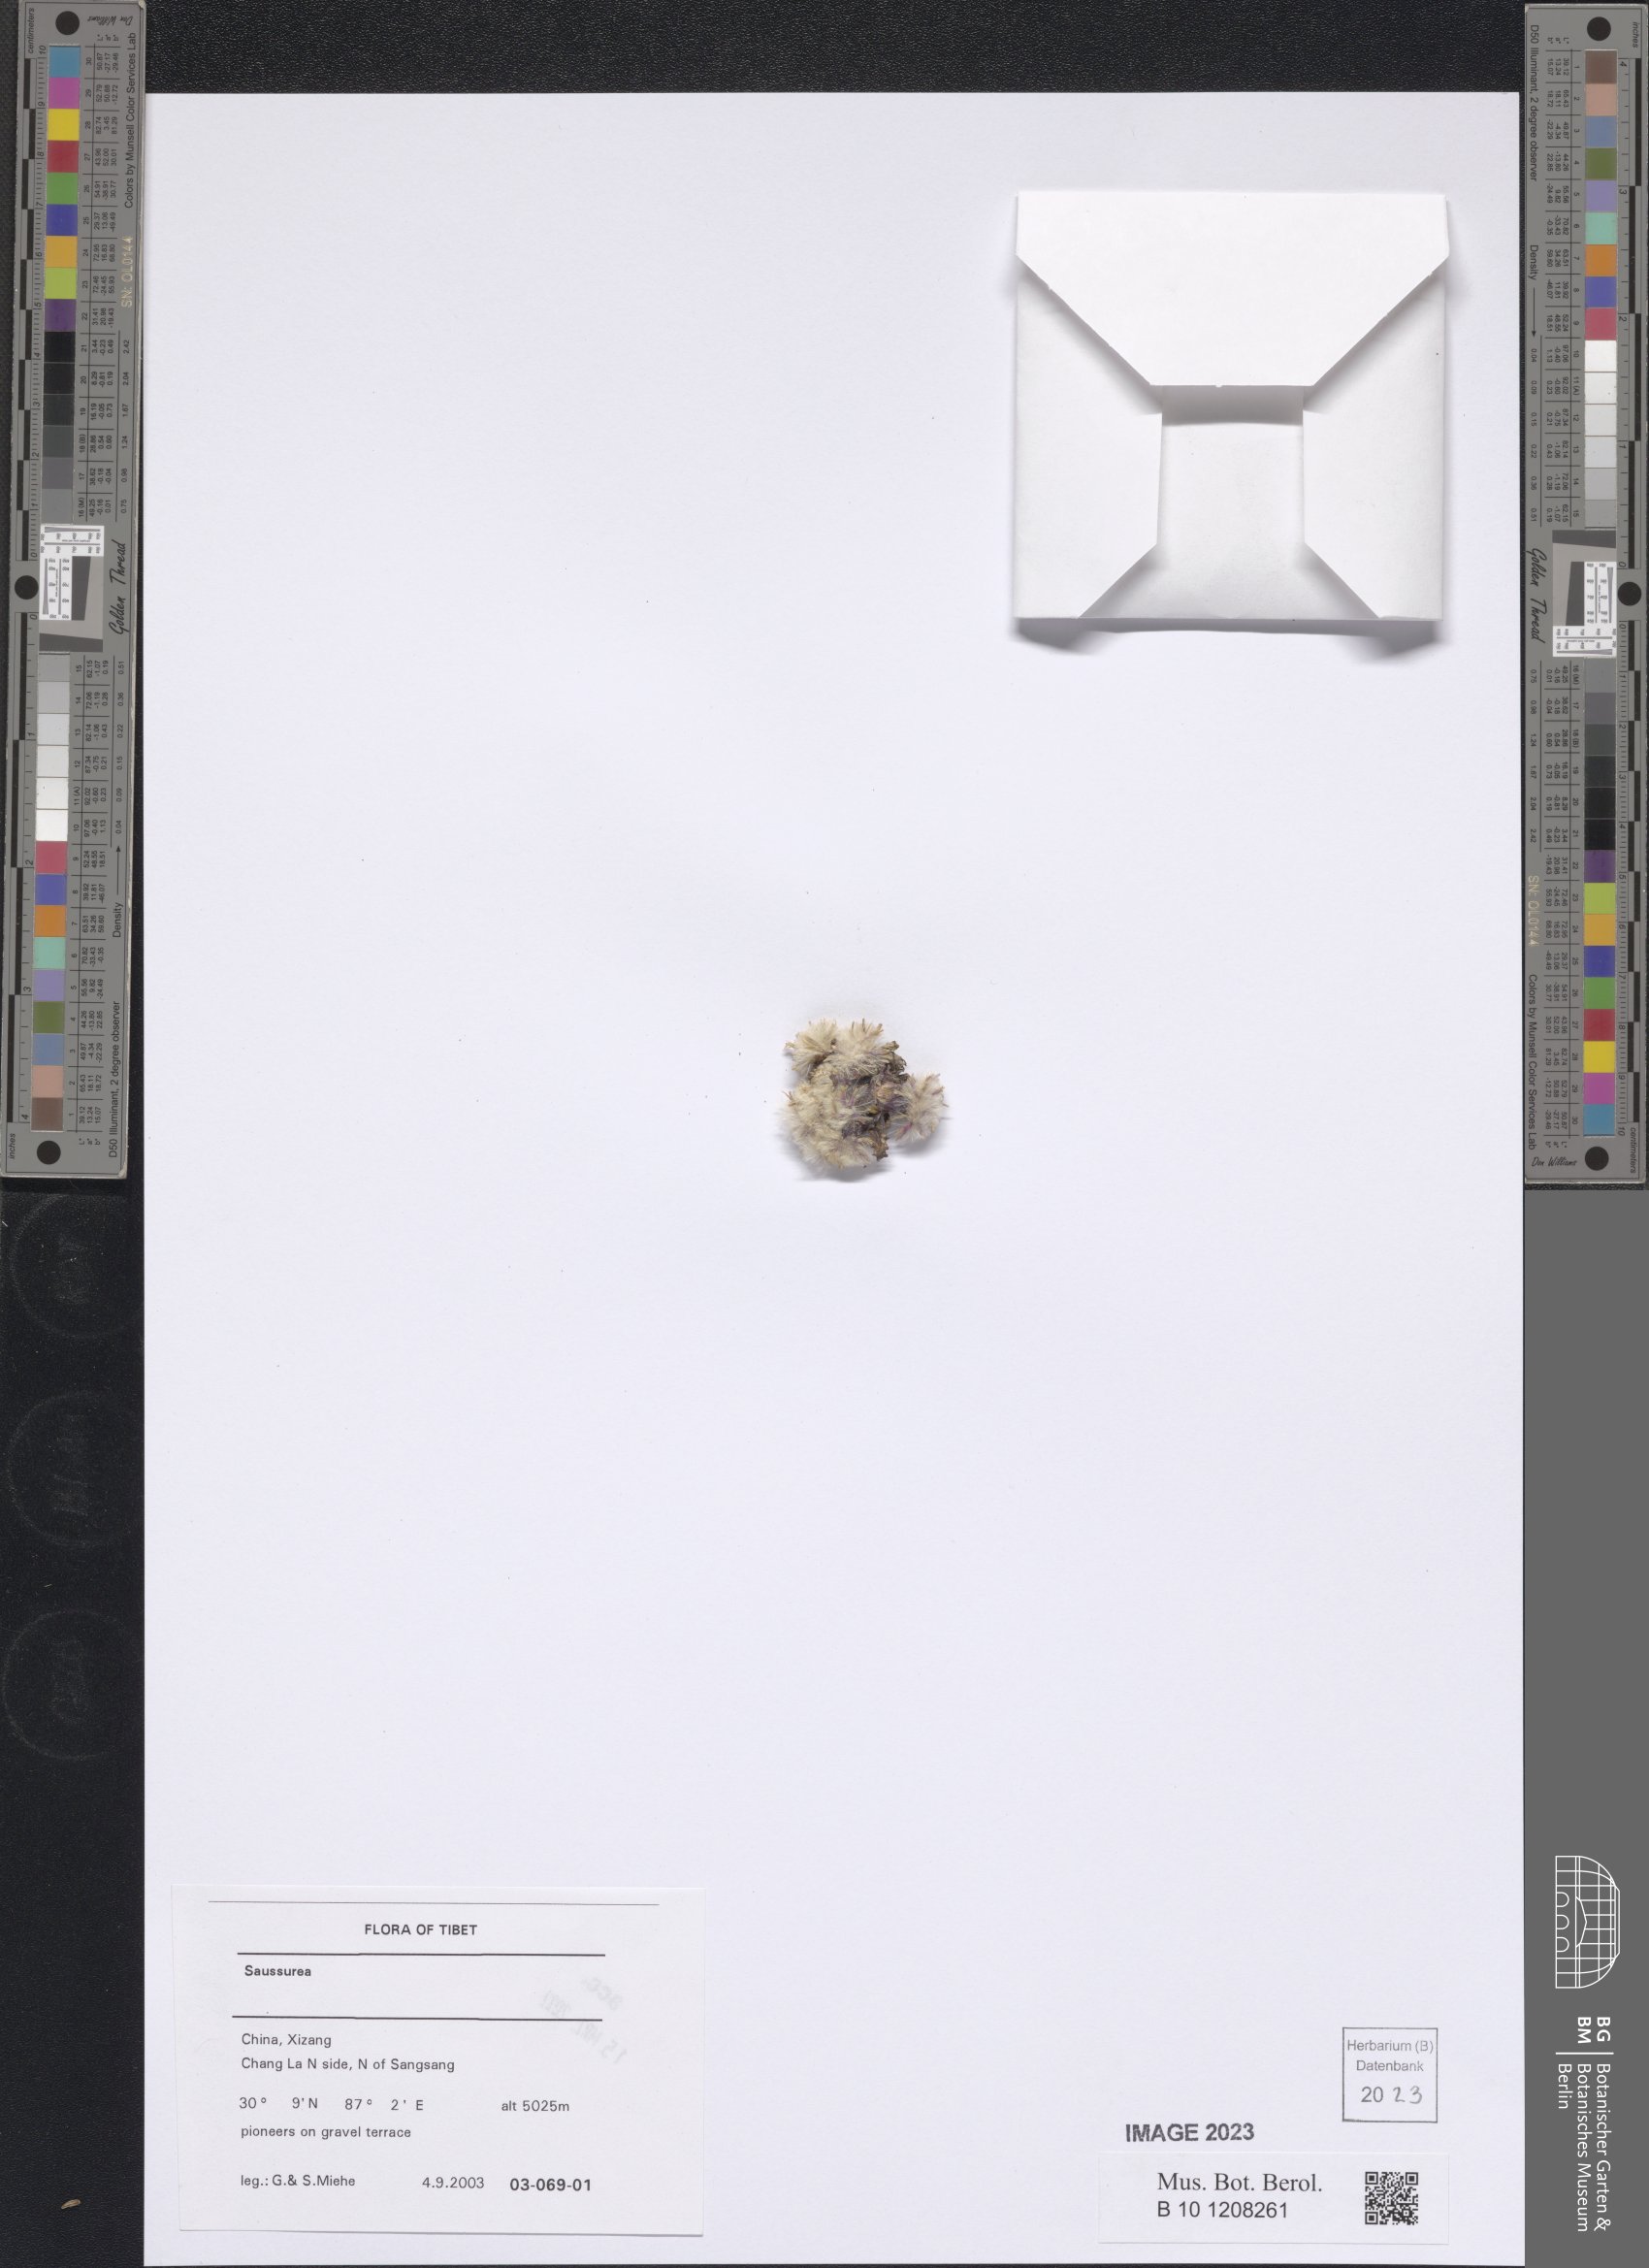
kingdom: Plantae
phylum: Tracheophyta
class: Magnoliopsida
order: Asterales
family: Asteraceae
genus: Saussurea
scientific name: Saussurea
